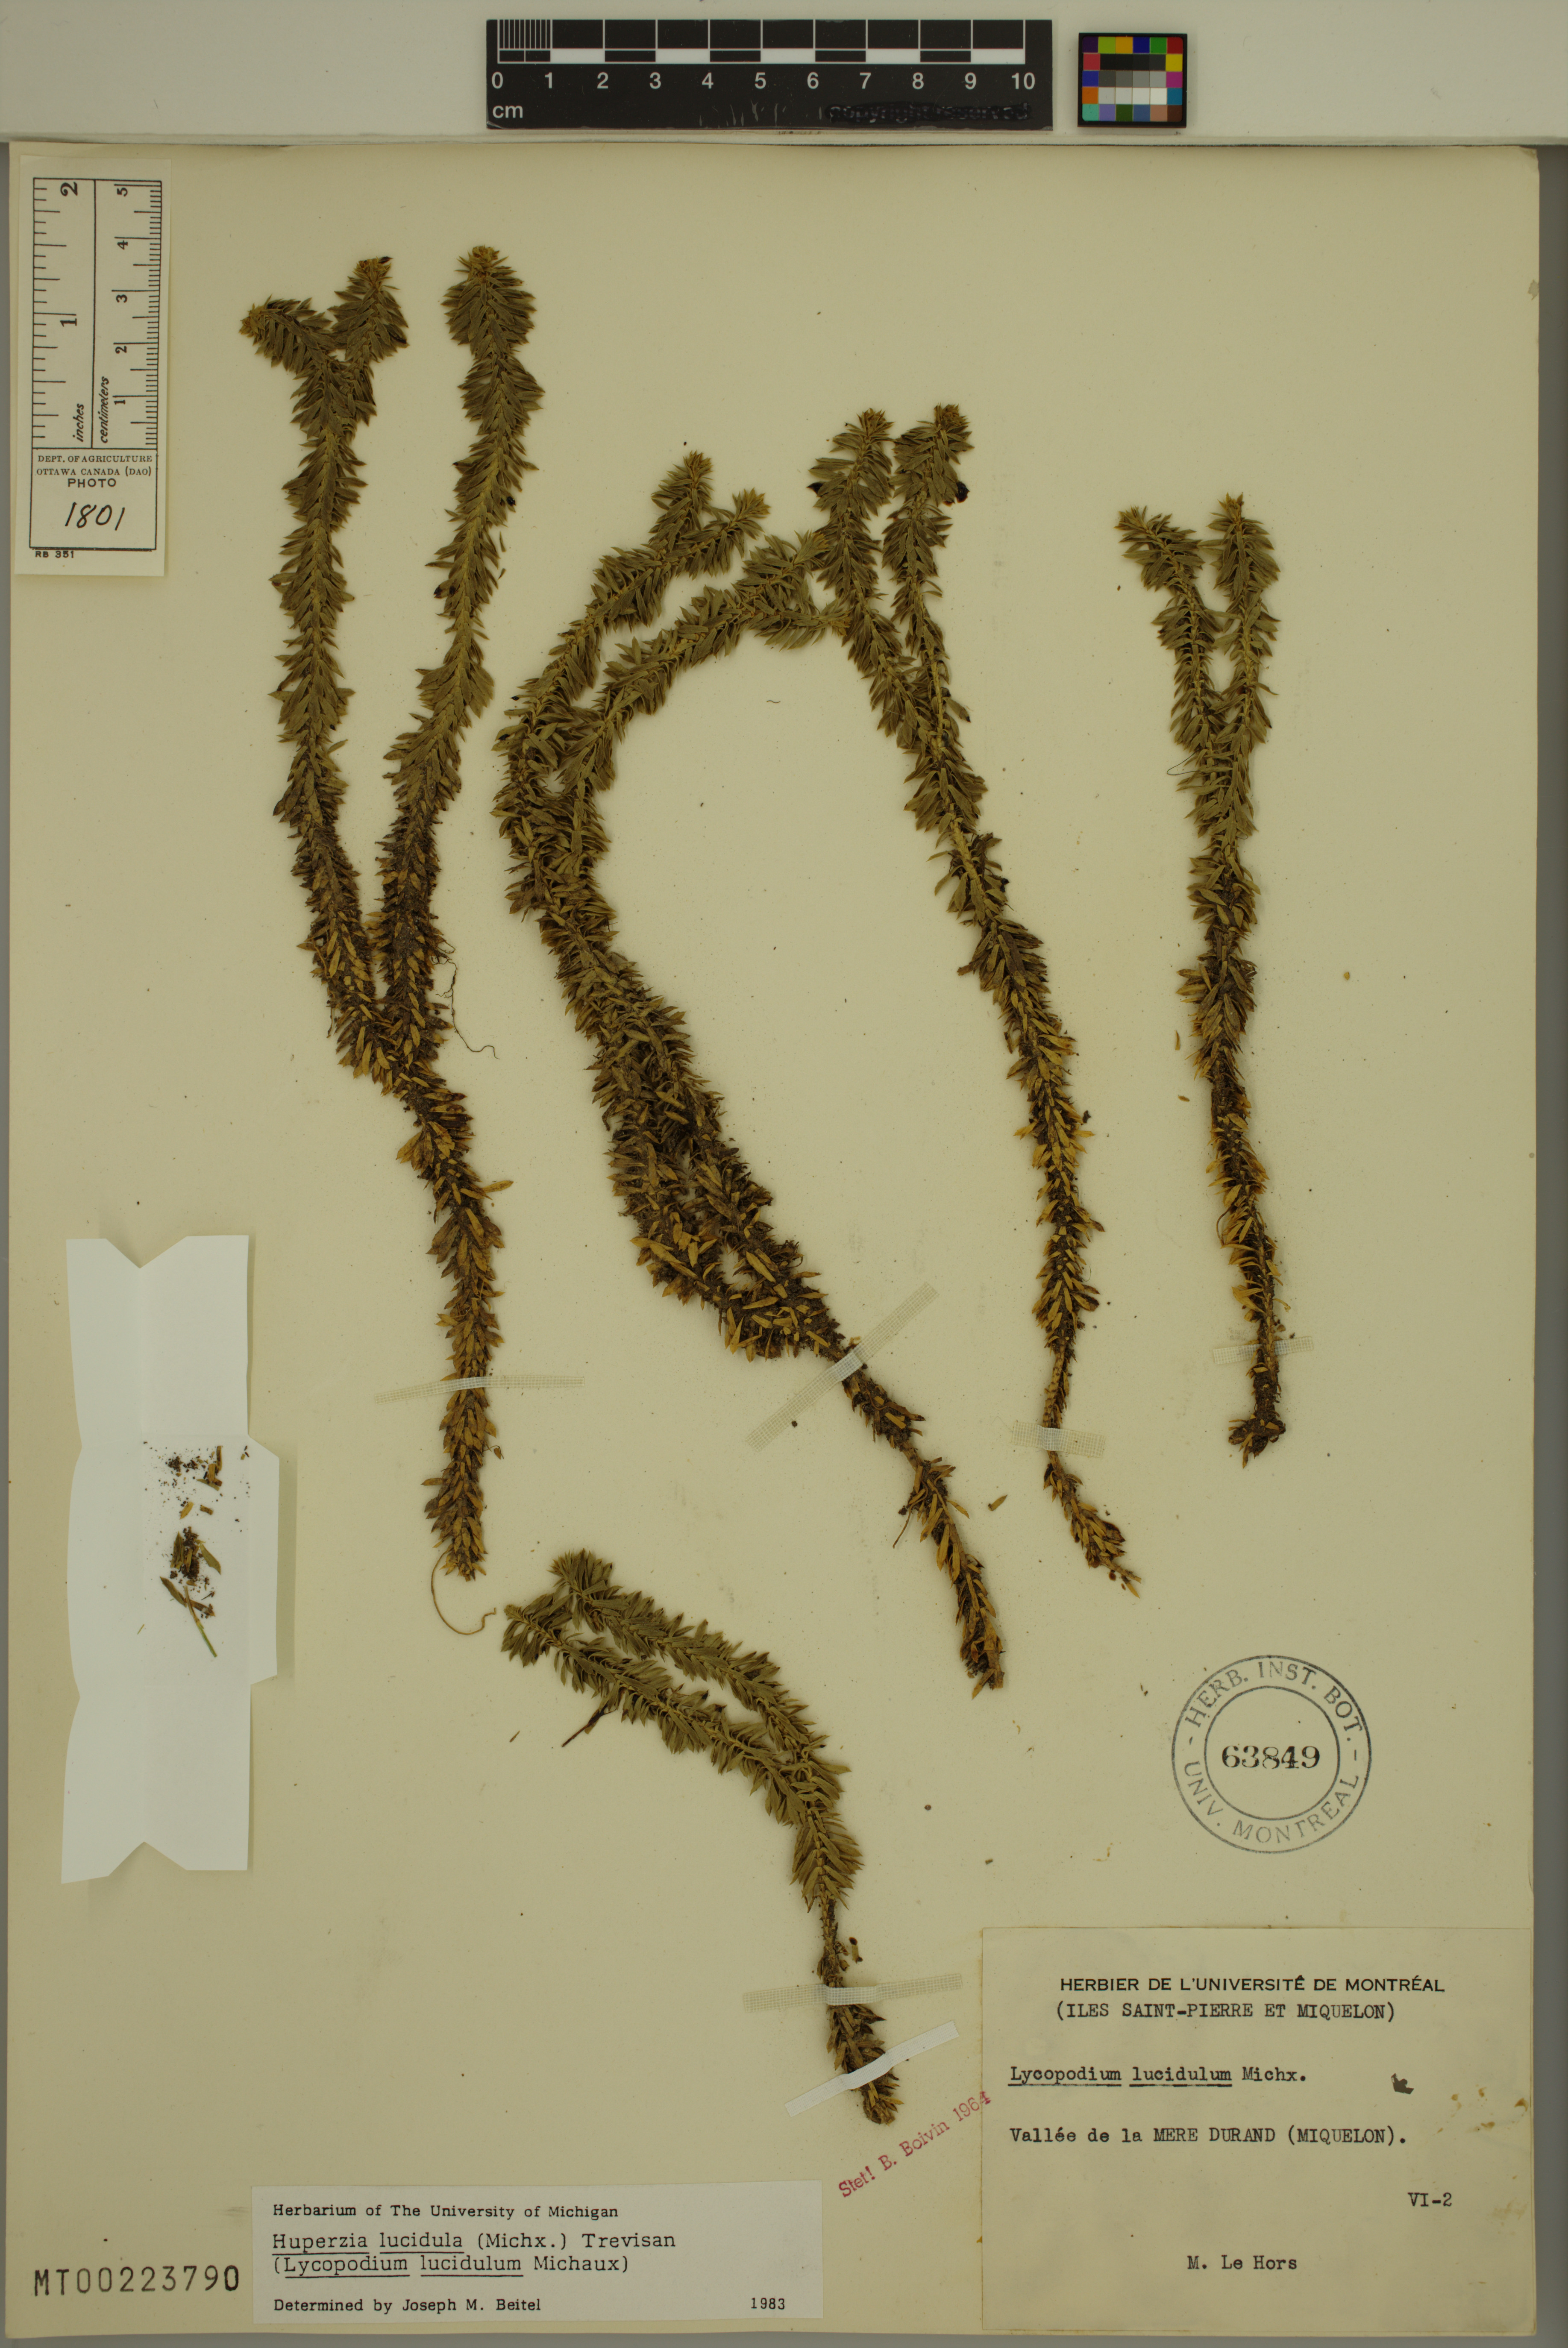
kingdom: Plantae
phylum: Tracheophyta
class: Lycopodiopsida
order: Lycopodiales
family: Lycopodiaceae
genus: Huperzia
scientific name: Huperzia lucidula
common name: Shining clubmoss
